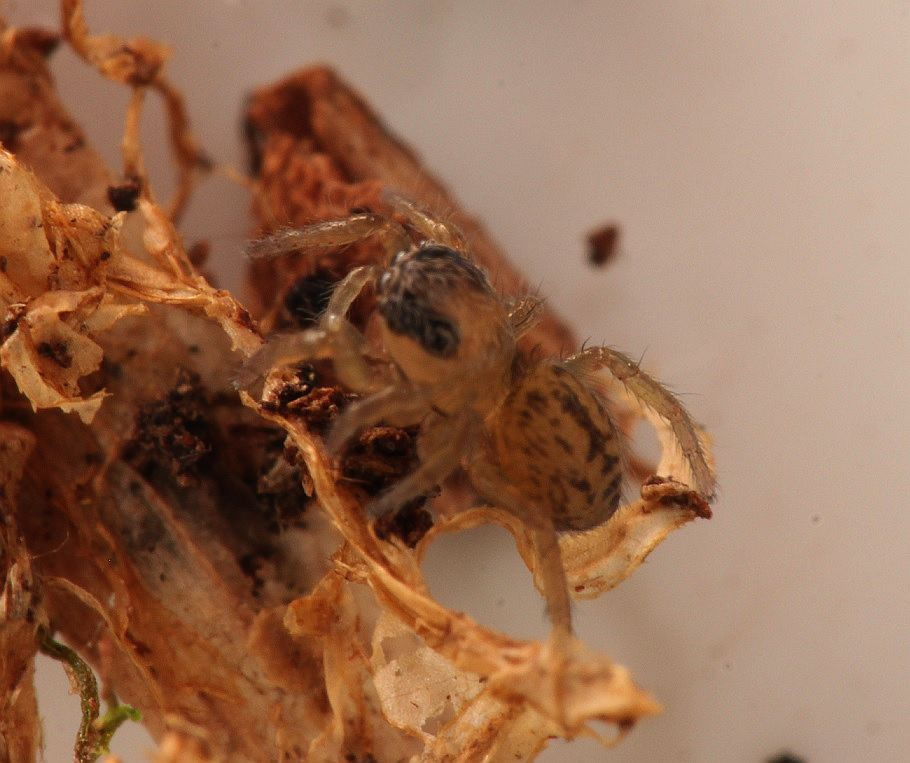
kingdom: Animalia
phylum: Arthropoda
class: Arachnida
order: Araneae
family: Salticidae
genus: Euophrys
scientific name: Euophrys frontalis
